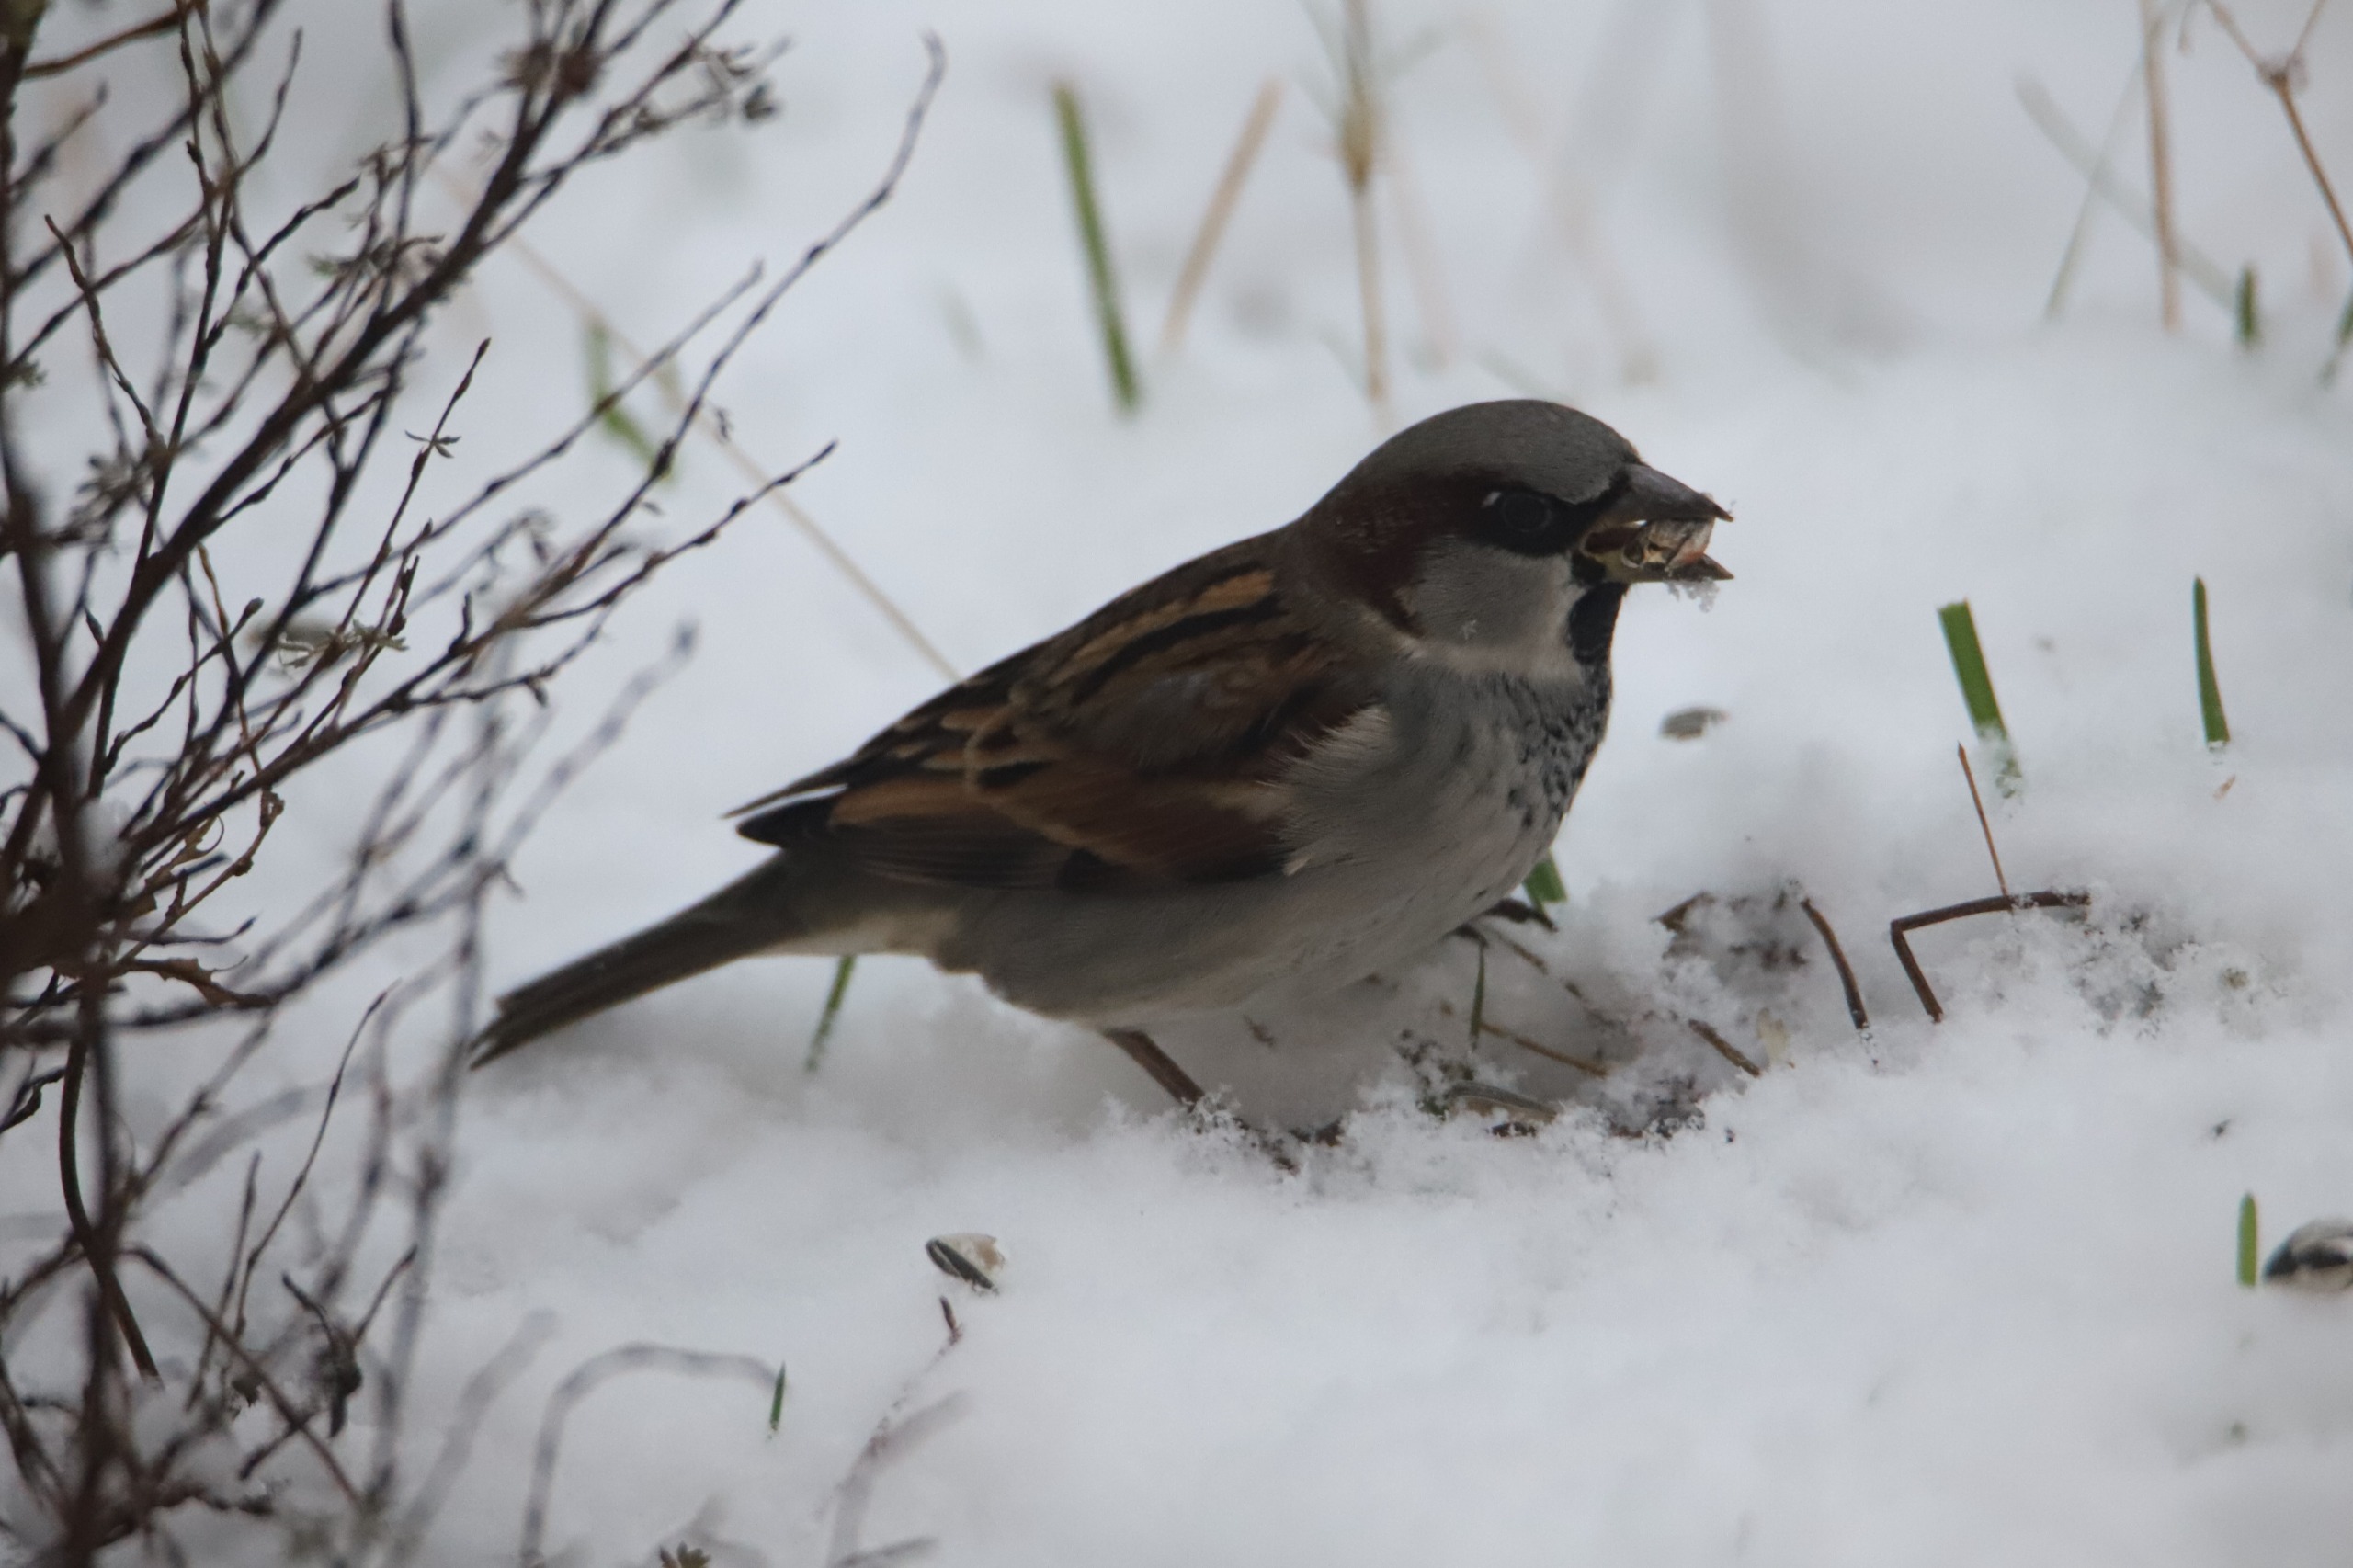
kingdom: Animalia
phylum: Chordata
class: Aves
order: Passeriformes
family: Passeridae
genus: Passer
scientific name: Passer domesticus
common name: Gråspurv
